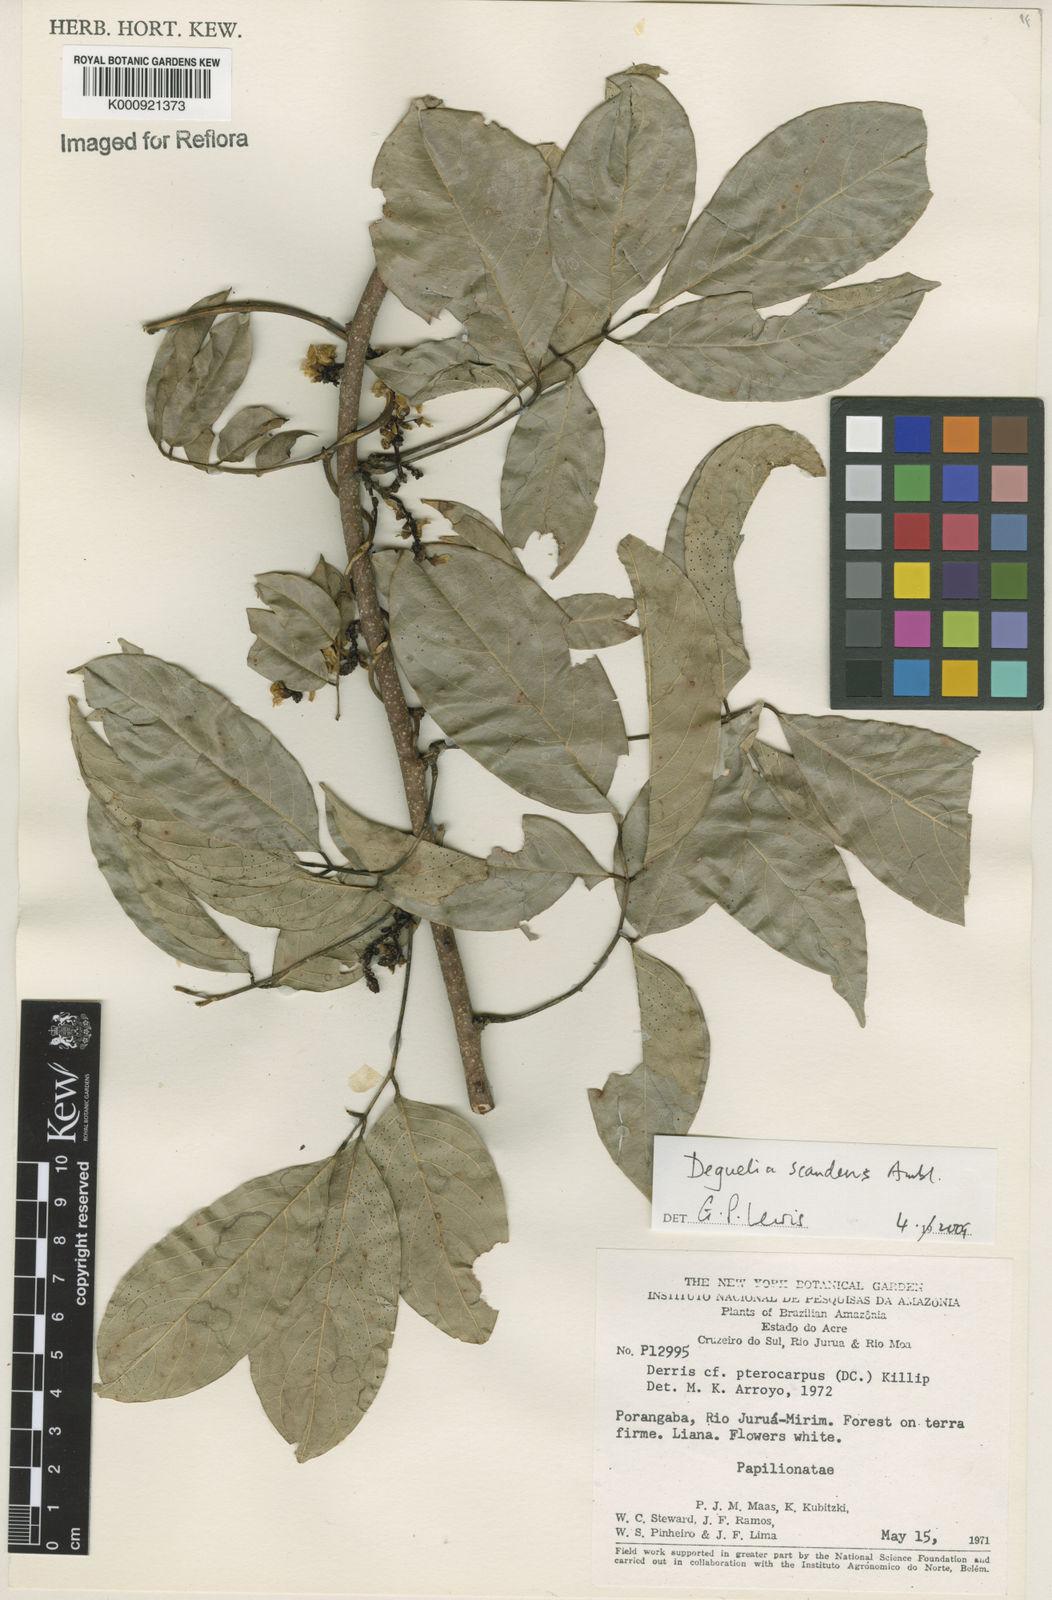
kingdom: Plantae
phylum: Tracheophyta
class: Magnoliopsida
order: Fabales
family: Fabaceae
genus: Deguelia
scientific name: Deguelia scandens
